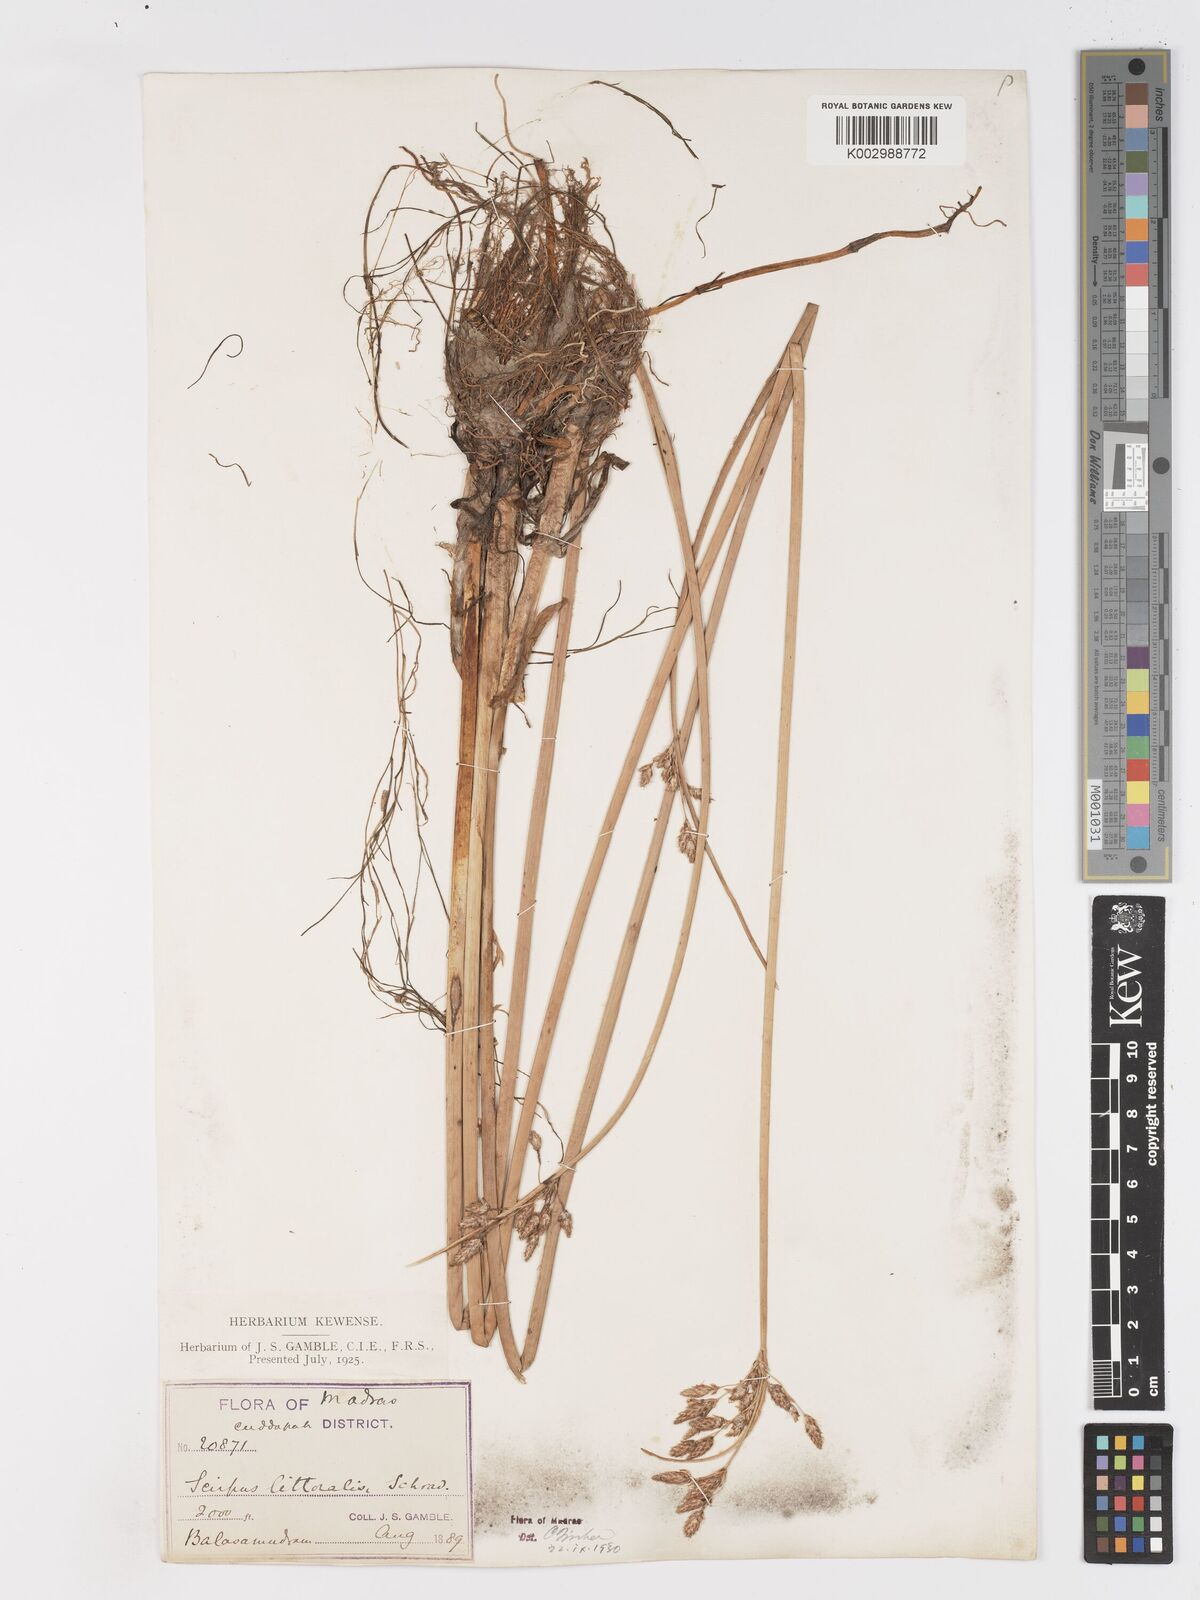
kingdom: Plantae
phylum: Tracheophyta
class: Liliopsida
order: Poales
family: Cyperaceae
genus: Schoenoplectus
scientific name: Schoenoplectus litoralis
